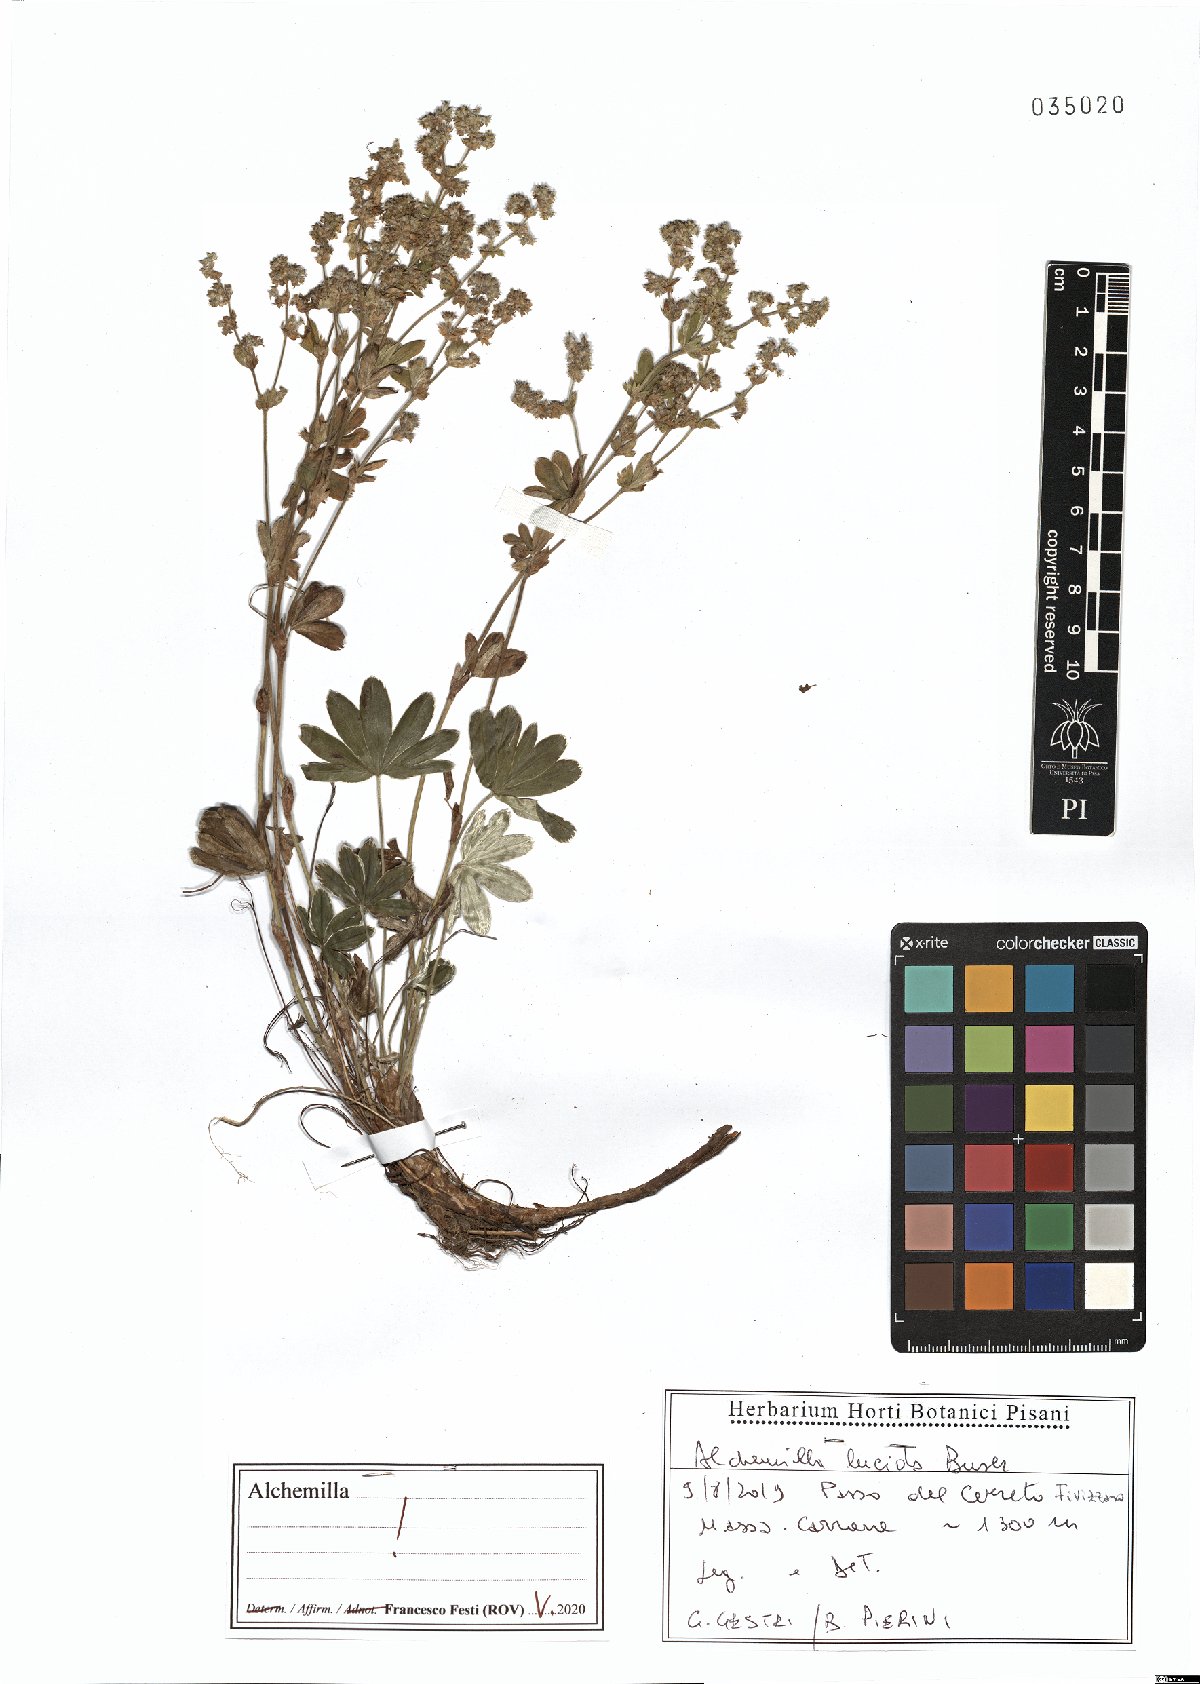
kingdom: Plantae
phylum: Tracheophyta
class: Magnoliopsida
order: Rosales
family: Rosaceae
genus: Alchemilla
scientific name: Alchemilla lucida
